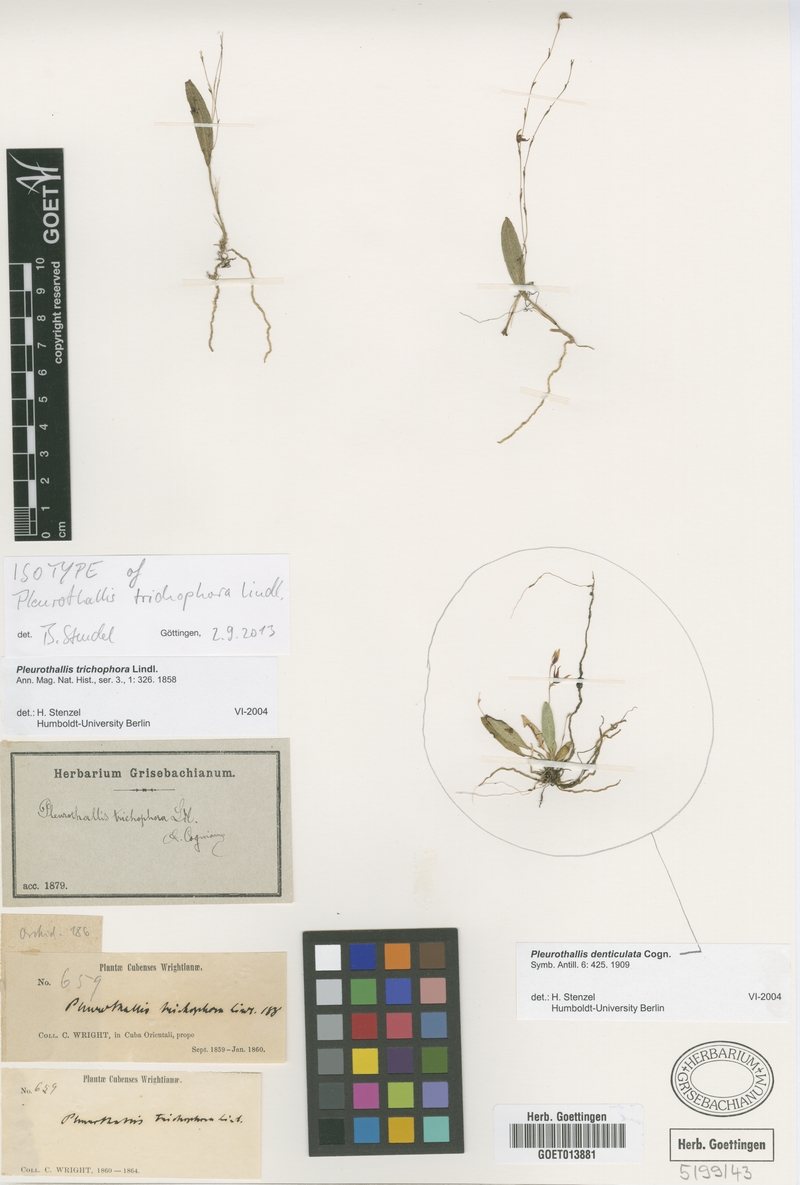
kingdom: Plantae
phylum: Tracheophyta
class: Liliopsida
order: Asparagales
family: Orchidaceae
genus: Acianthera
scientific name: Acianthera trichophora
